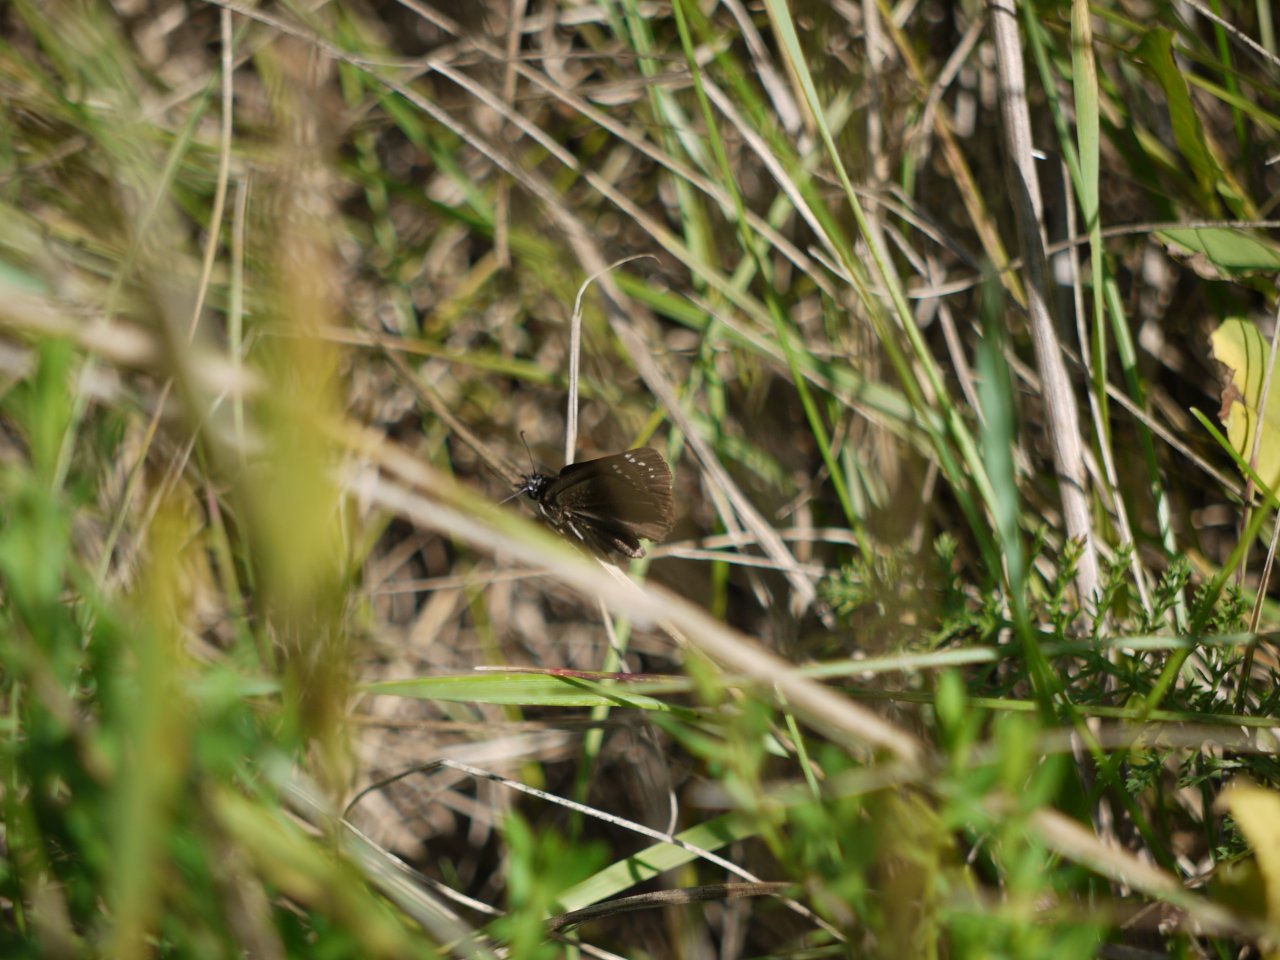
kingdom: Animalia
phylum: Arthropoda
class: Insecta
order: Lepidoptera
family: Hesperiidae
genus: Pholisora
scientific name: Pholisora catullus
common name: Common Sootywing
